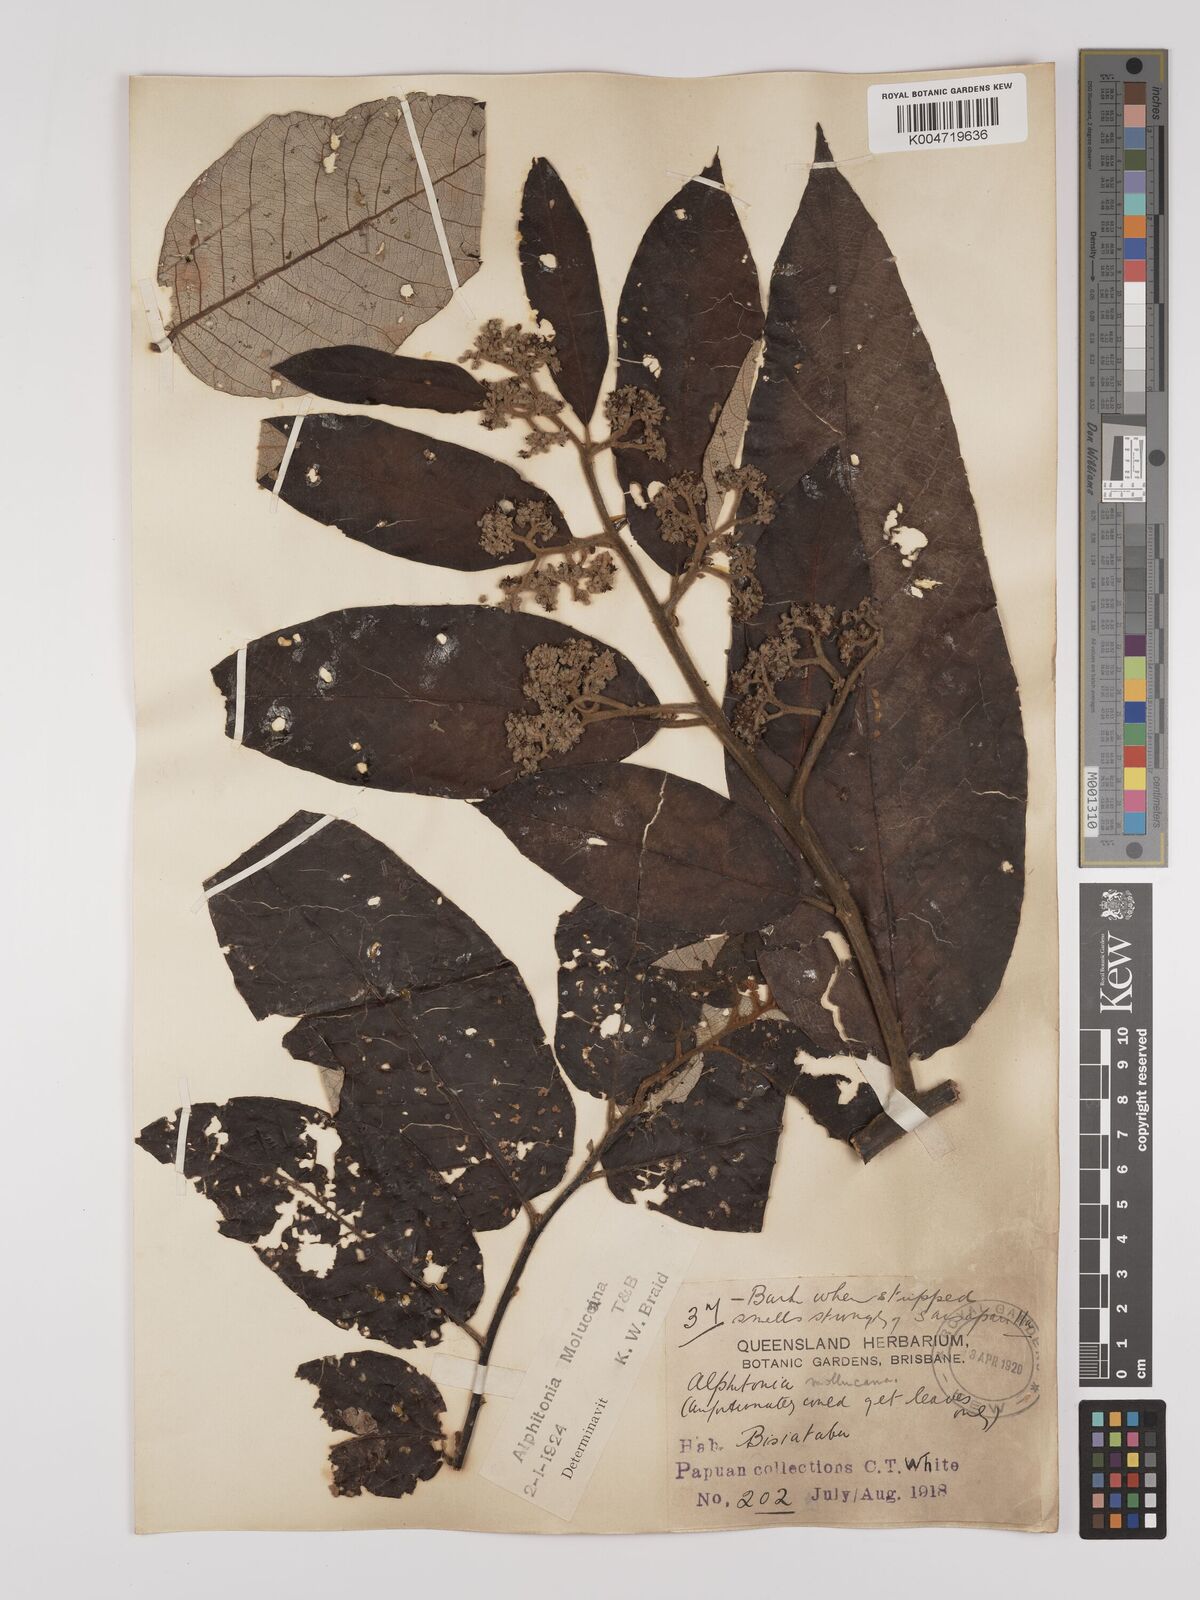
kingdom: Plantae
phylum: Tracheophyta
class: Magnoliopsida
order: Rosales
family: Rhamnaceae
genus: Alphitonia
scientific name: Alphitonia incana
